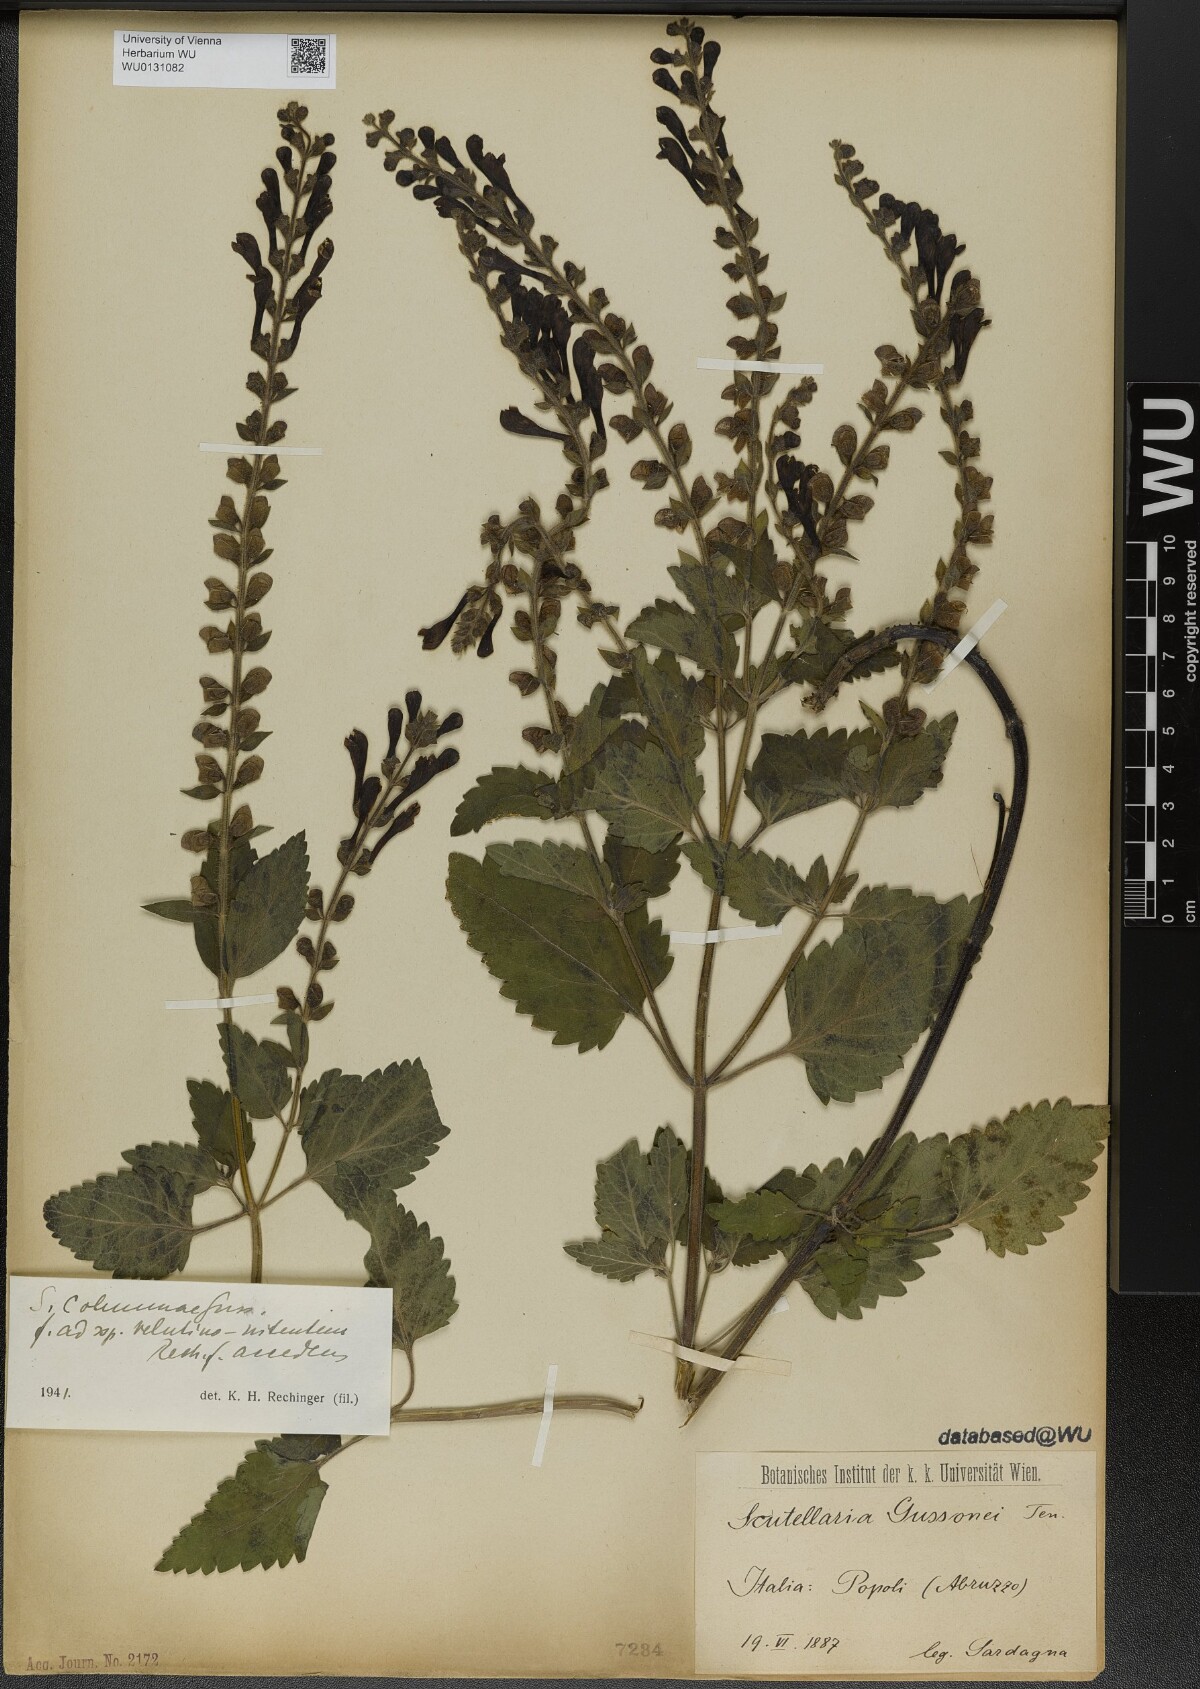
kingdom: Plantae
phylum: Tracheophyta
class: Magnoliopsida
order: Lamiales
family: Lamiaceae
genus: Scutellaria
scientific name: Scutellaria columnae
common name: Large skullcap
